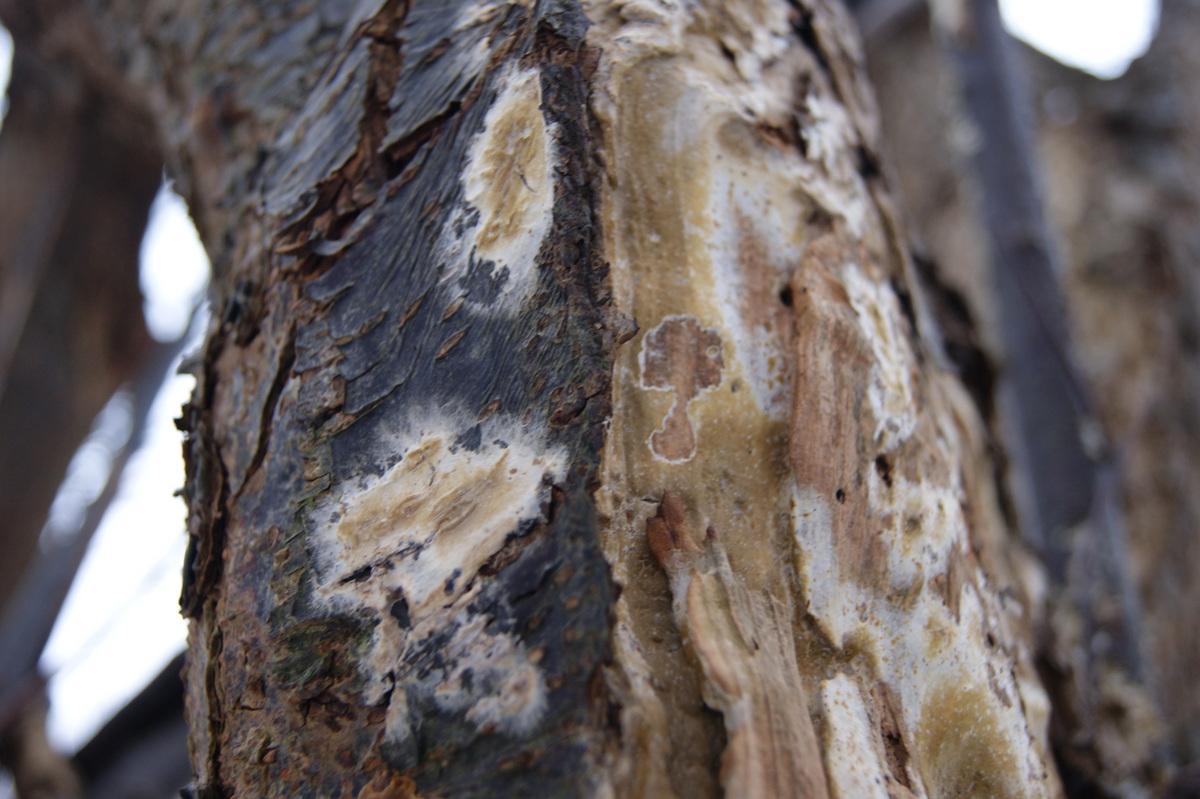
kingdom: Fungi
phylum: Basidiomycota
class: Agaricomycetes
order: Boletales
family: Coniophoraceae
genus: Coniophora
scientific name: Coniophora puteana
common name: gul tømmersvamp
